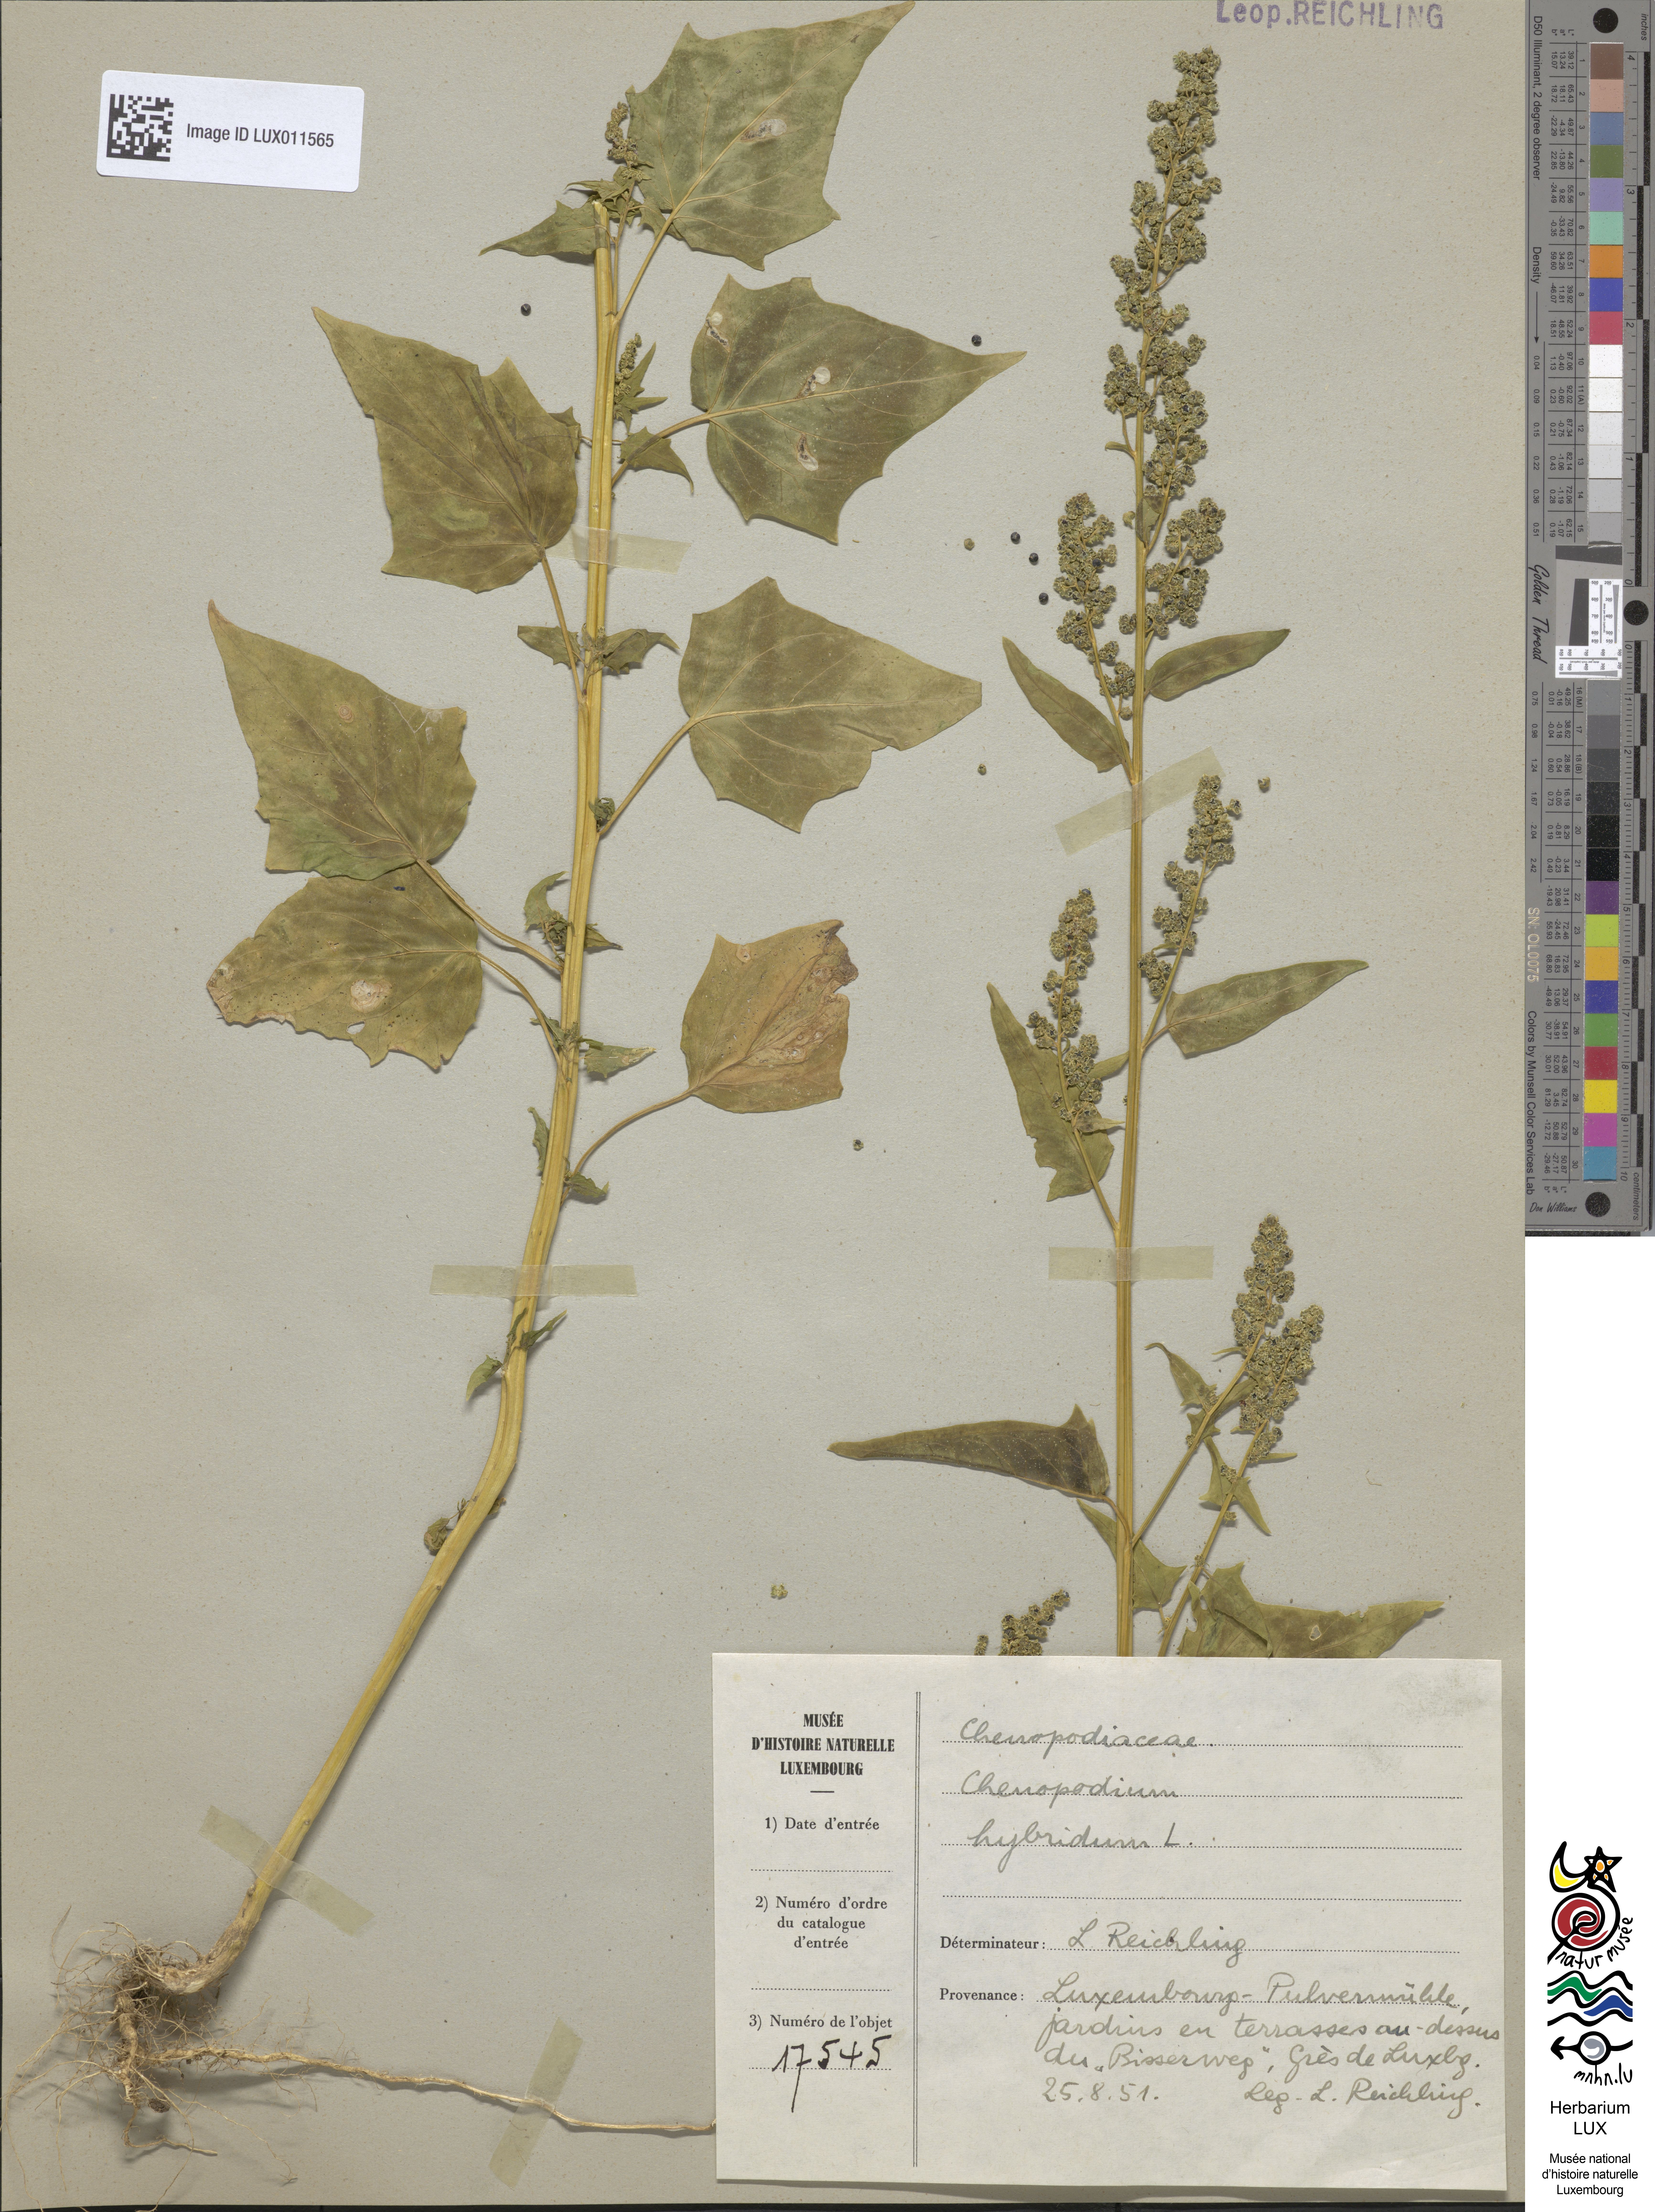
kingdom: Plantae
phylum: Tracheophyta
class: Magnoliopsida
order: Caryophyllales
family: Amaranthaceae
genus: Chenopodiastrum
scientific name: Chenopodiastrum hybridum
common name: Mapleleaf goosefoot
